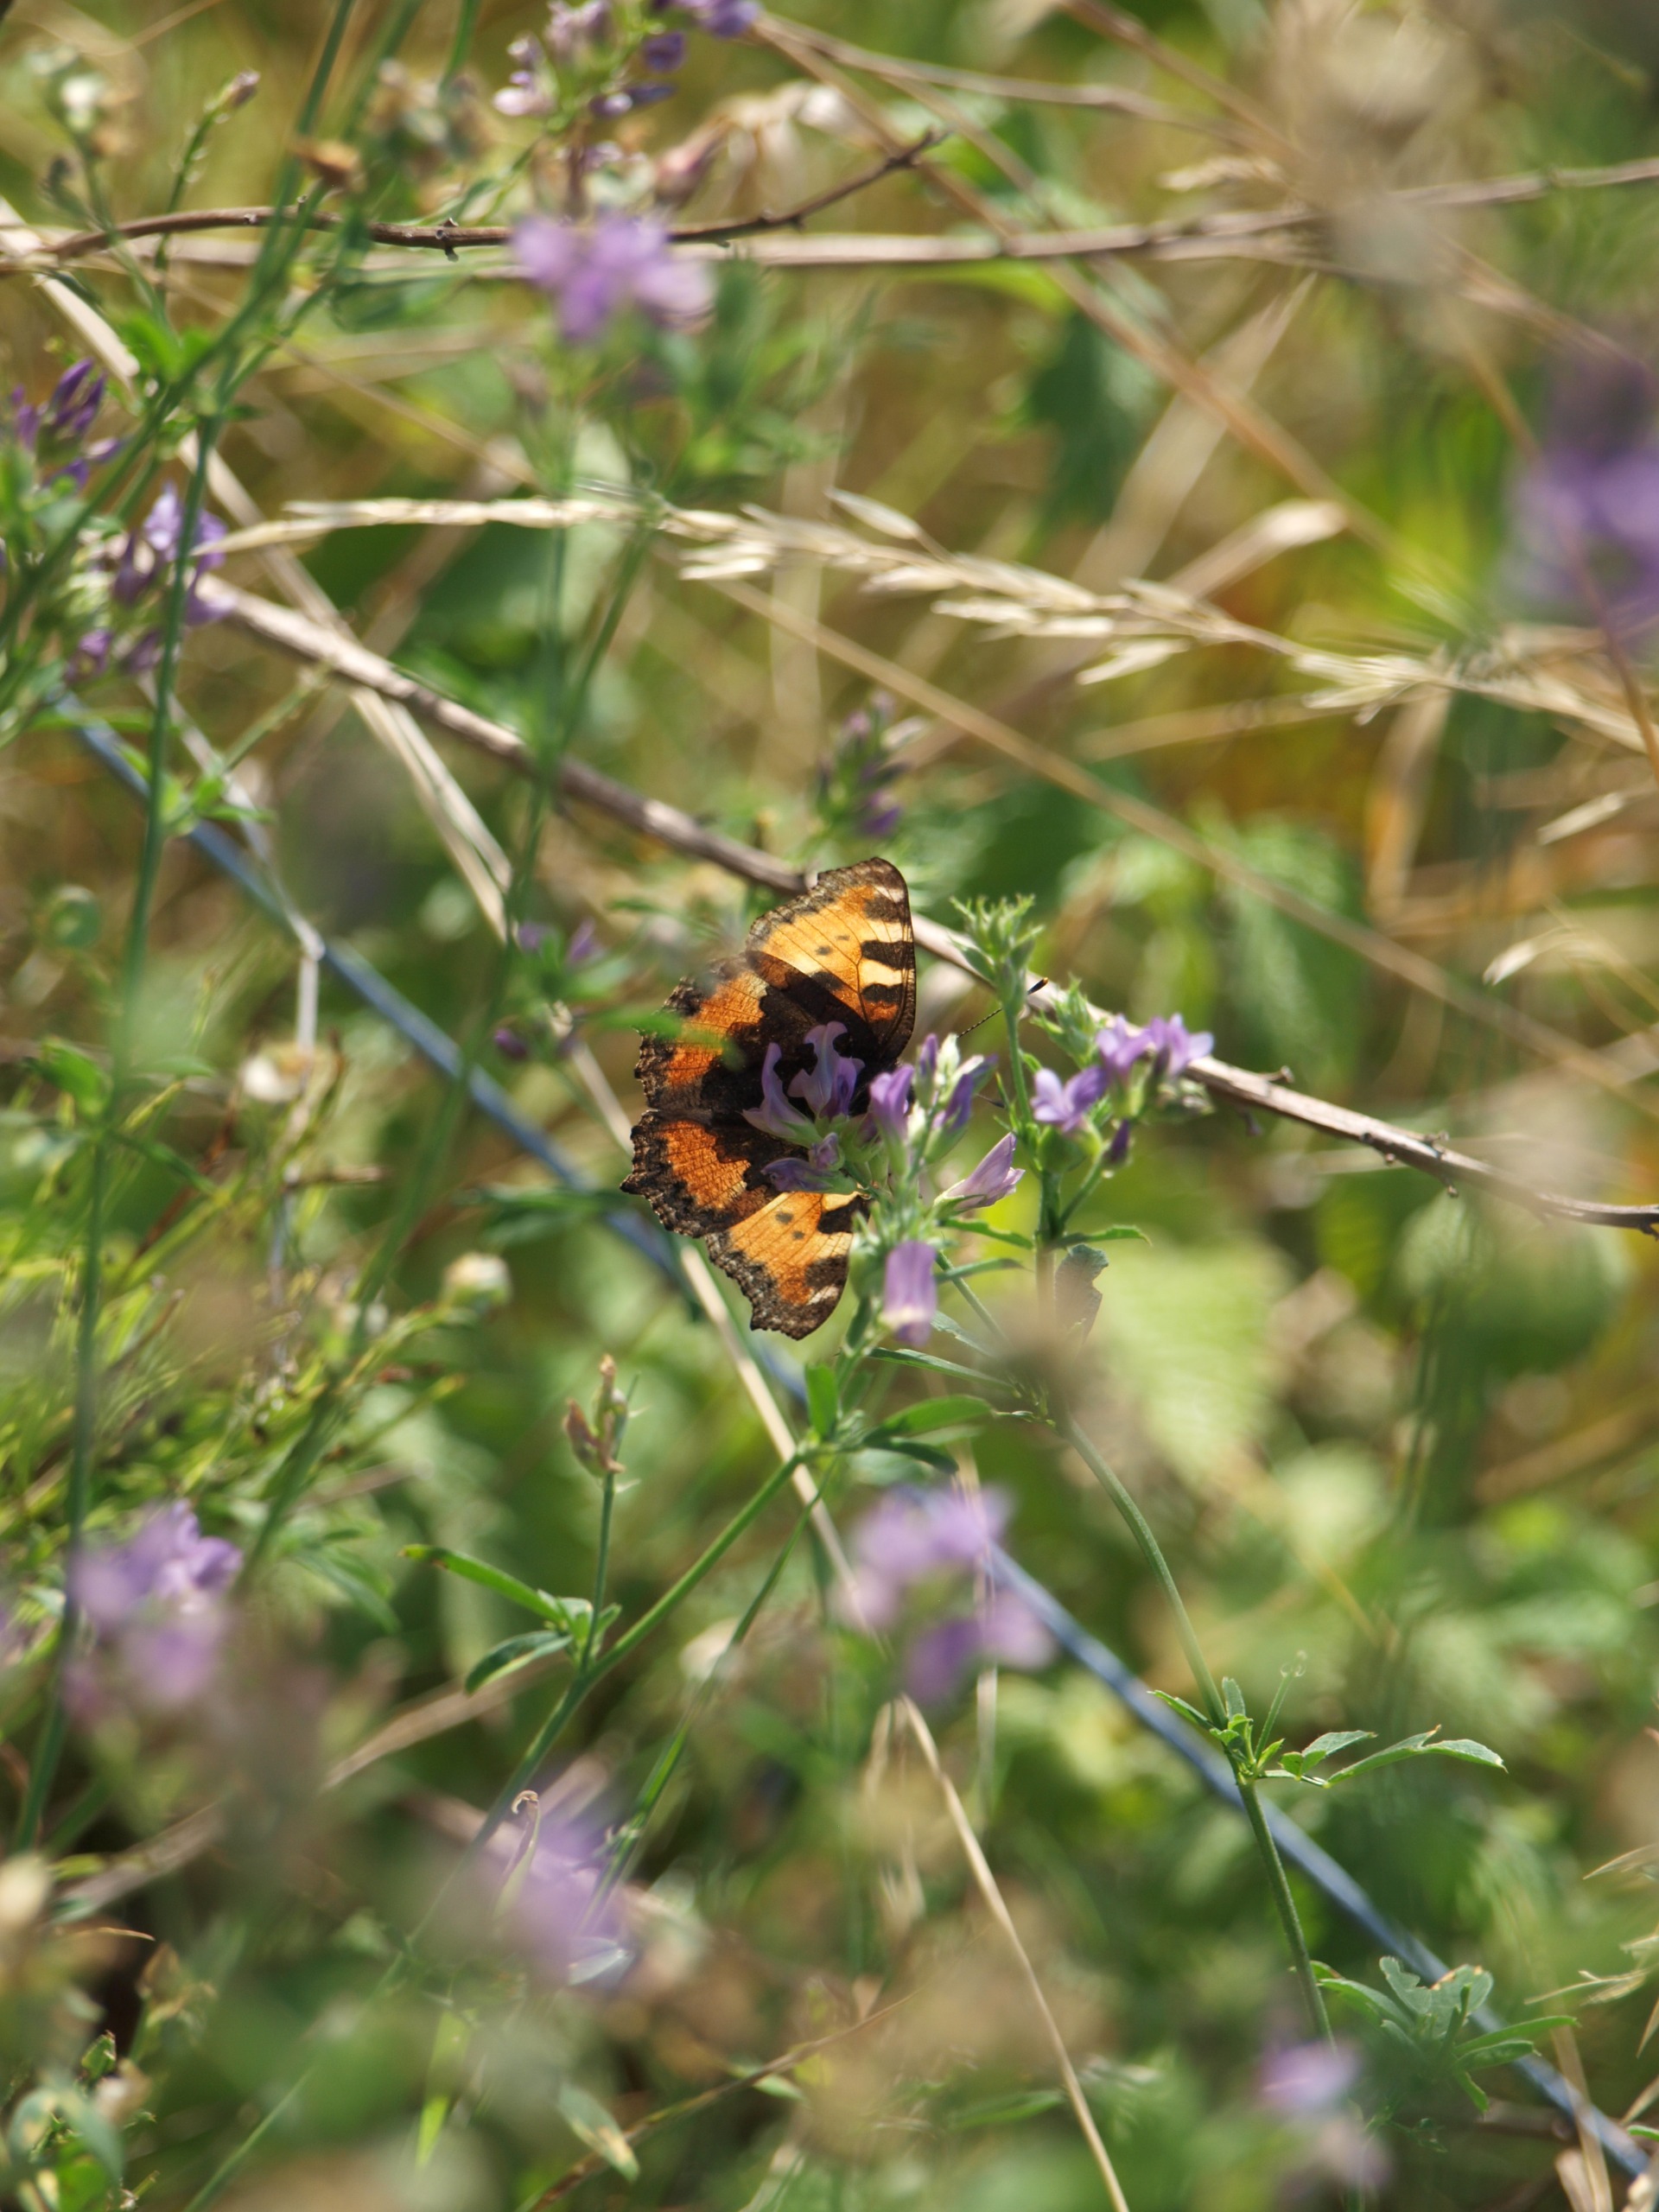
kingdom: Animalia
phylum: Arthropoda
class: Insecta
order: Lepidoptera
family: Nymphalidae
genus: Aglais
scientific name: Aglais urticae
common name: Nældens takvinge
